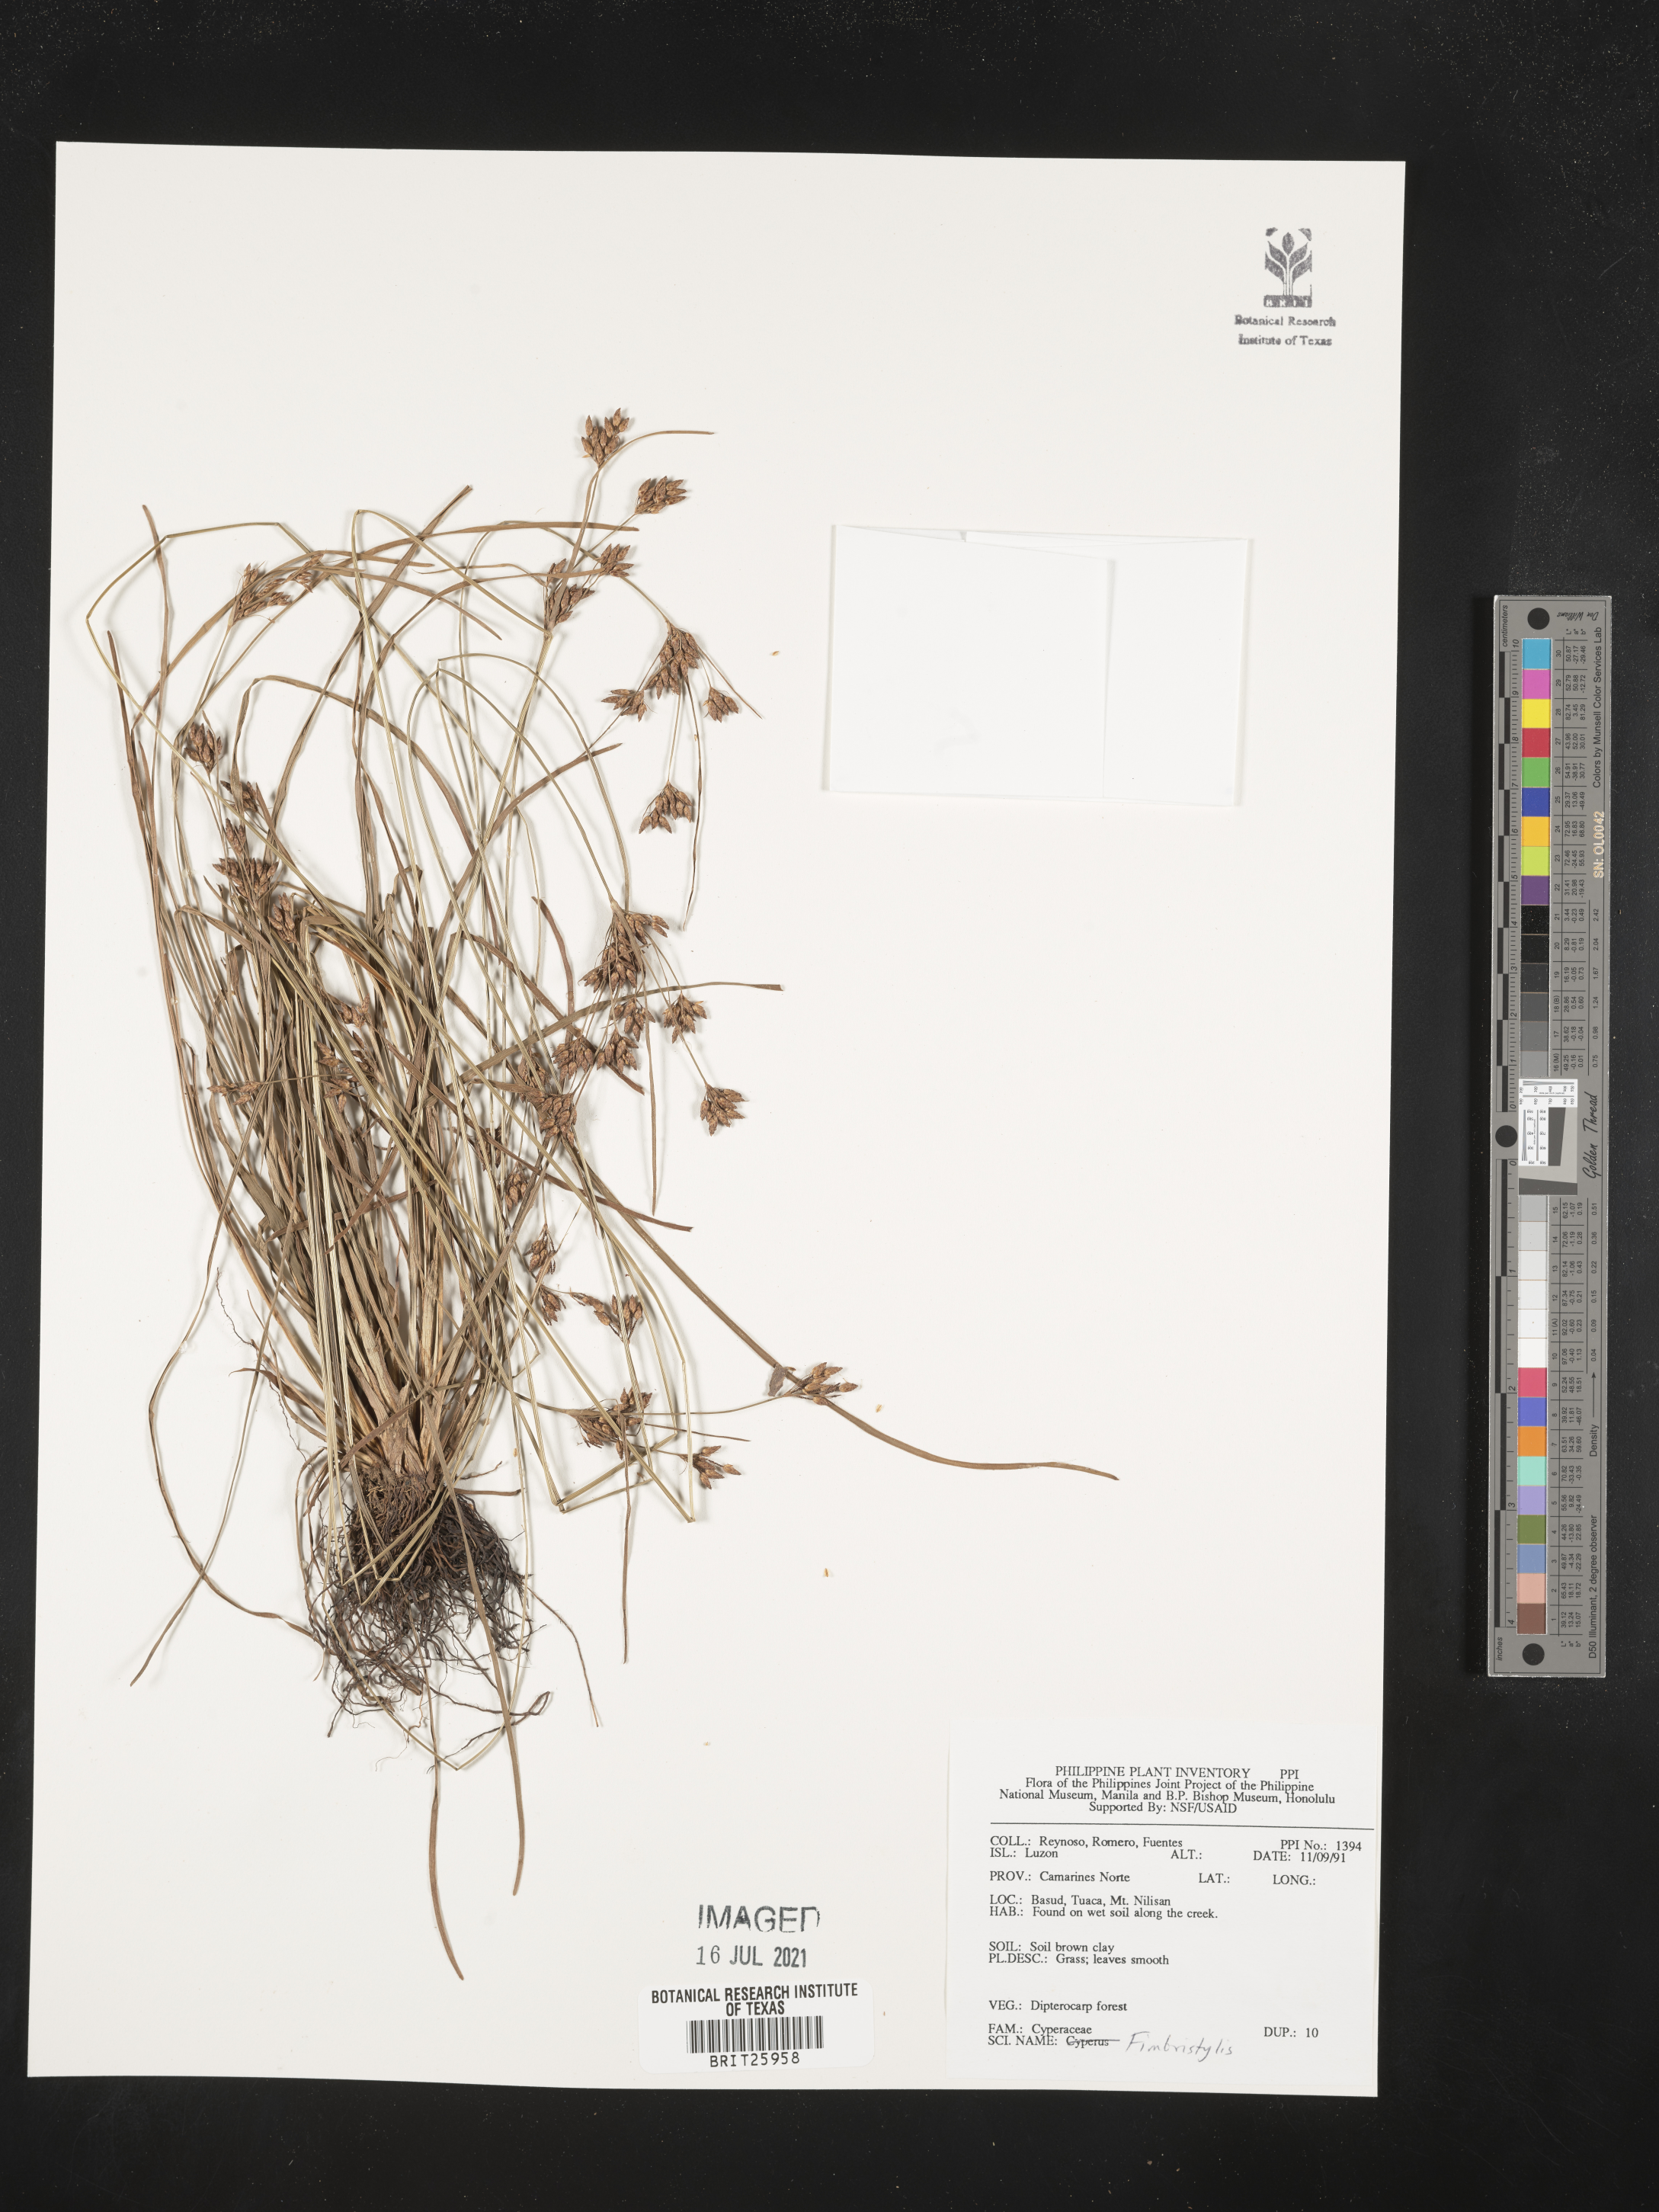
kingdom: Plantae
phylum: Tracheophyta
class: Liliopsida
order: Poales
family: Cyperaceae
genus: Fimbristylis
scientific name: Fimbristylis
